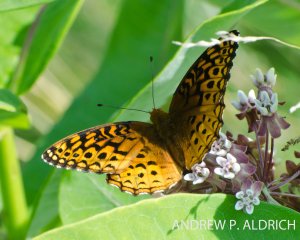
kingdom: Animalia
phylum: Arthropoda
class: Insecta
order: Lepidoptera
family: Nymphalidae
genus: Speyeria
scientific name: Speyeria aphrodite
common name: Aphrodite Fritillary
